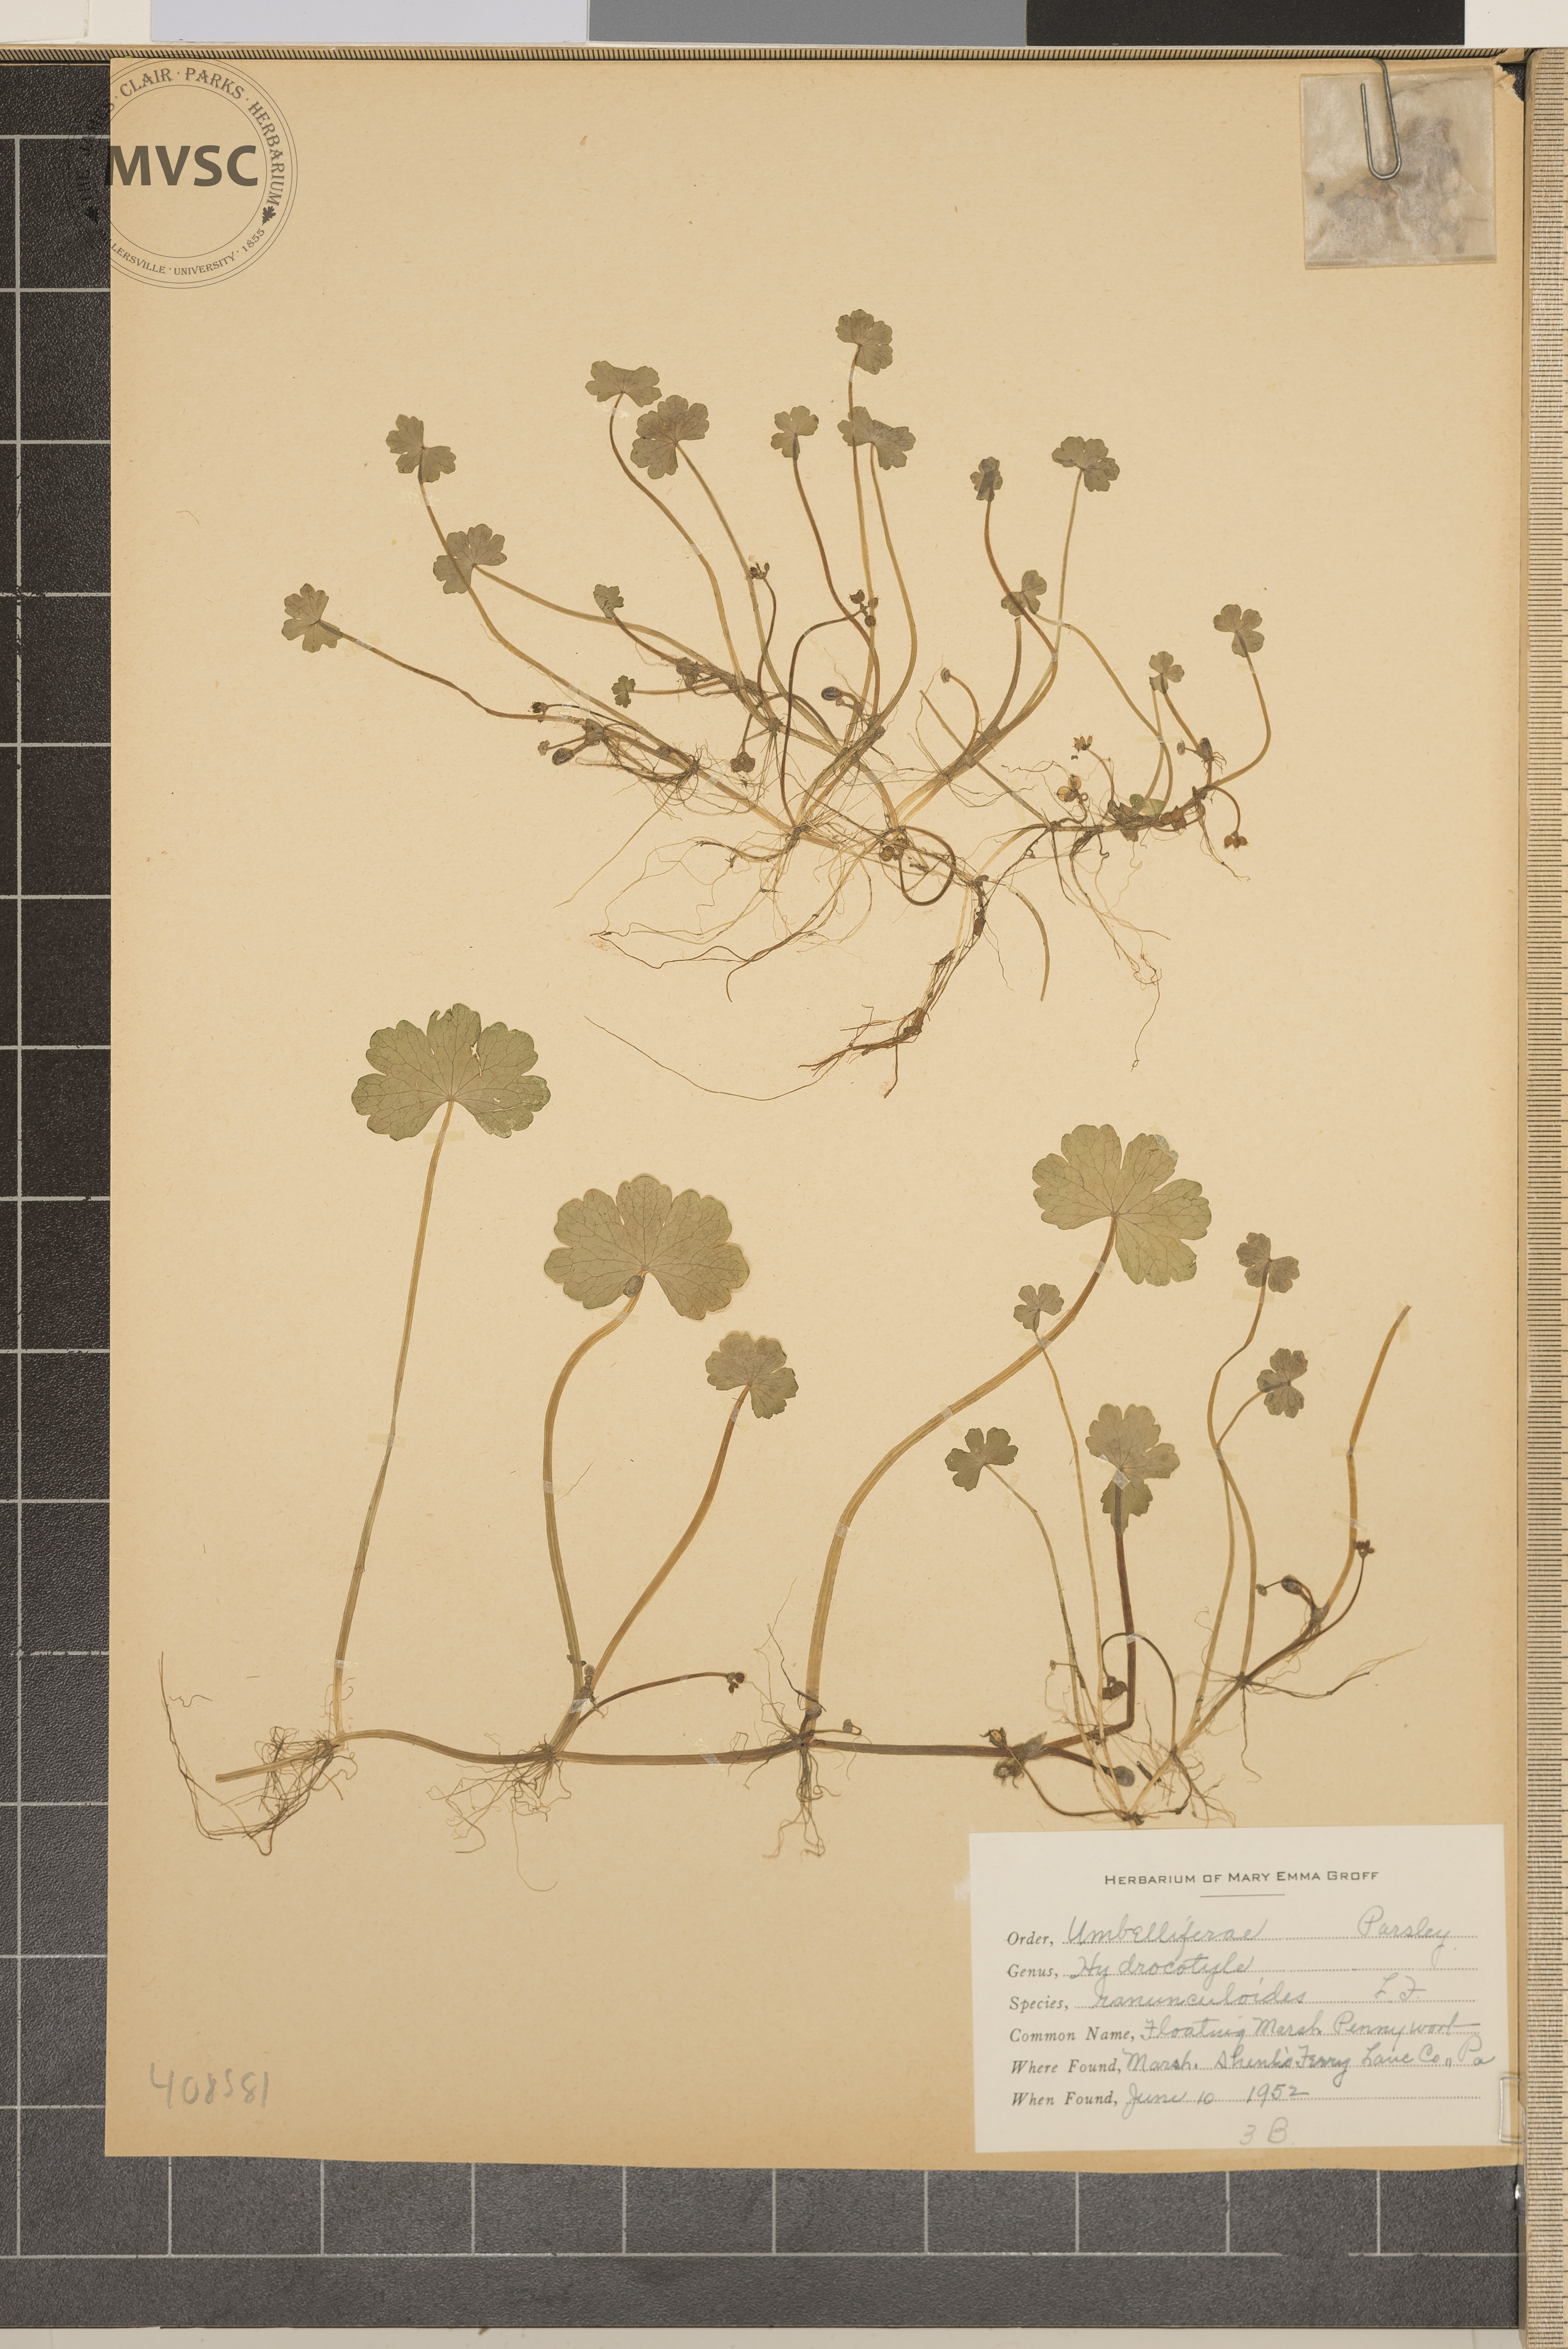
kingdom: Plantae
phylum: Tracheophyta
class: Magnoliopsida
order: Apiales
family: Araliaceae
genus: Hydrocotyle
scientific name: Hydrocotyle ranunculoides
